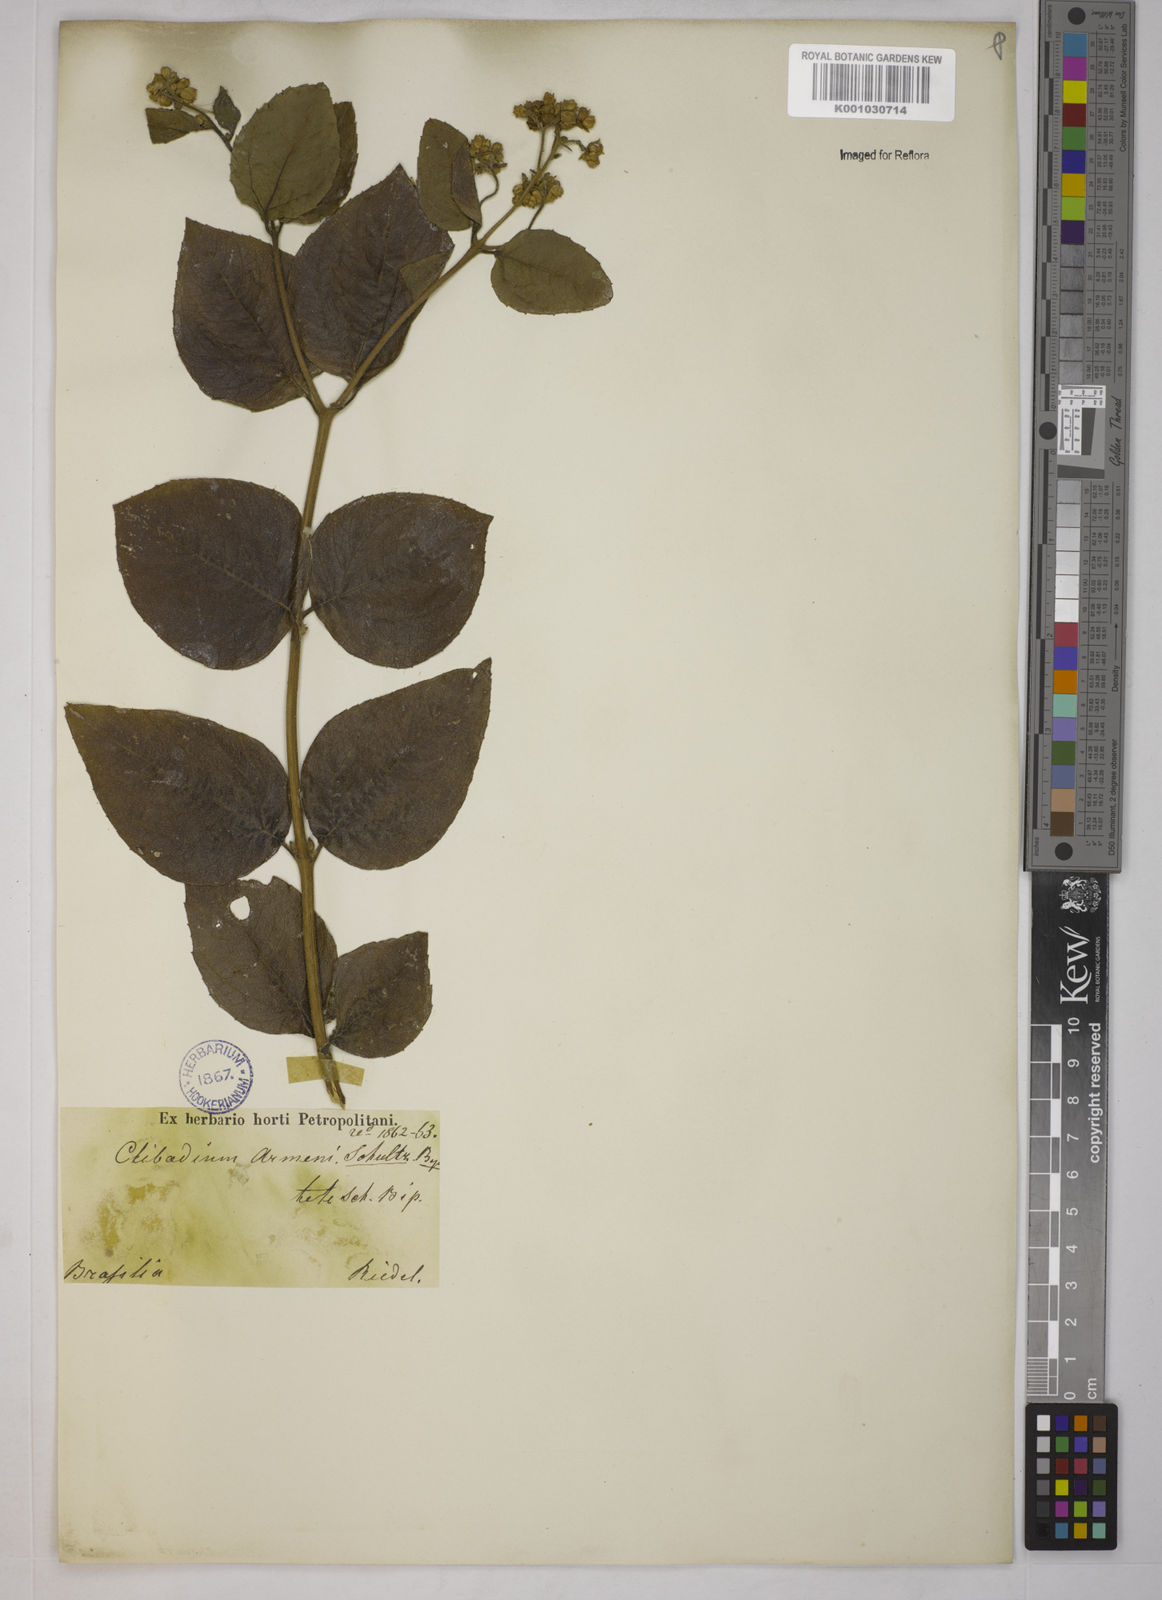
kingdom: Plantae
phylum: Tracheophyta
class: Magnoliopsida
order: Asterales
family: Asteraceae
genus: Clibadium
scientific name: Clibadium armanii
